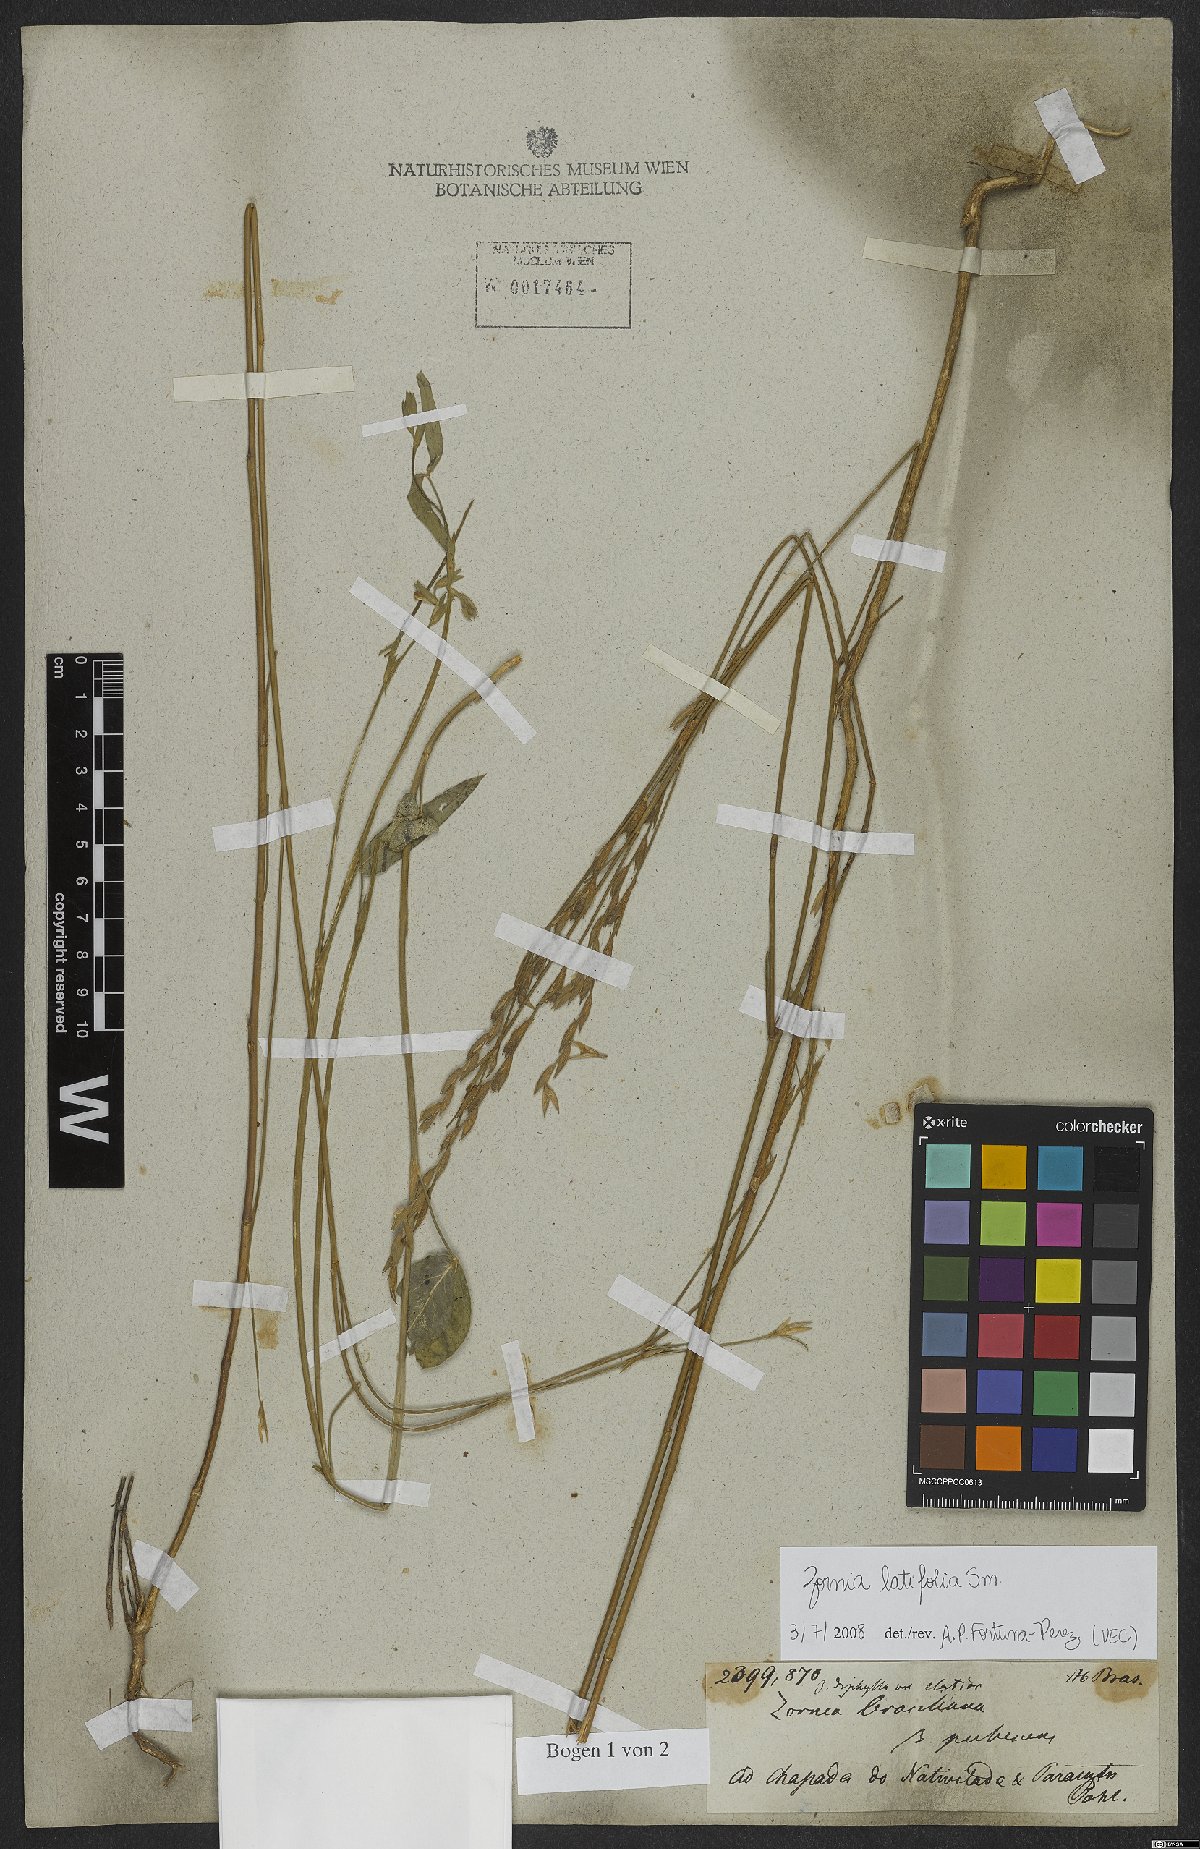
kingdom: Plantae
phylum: Tracheophyta
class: Magnoliopsida
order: Fabales
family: Fabaceae
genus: Zornia
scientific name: Zornia sericea
